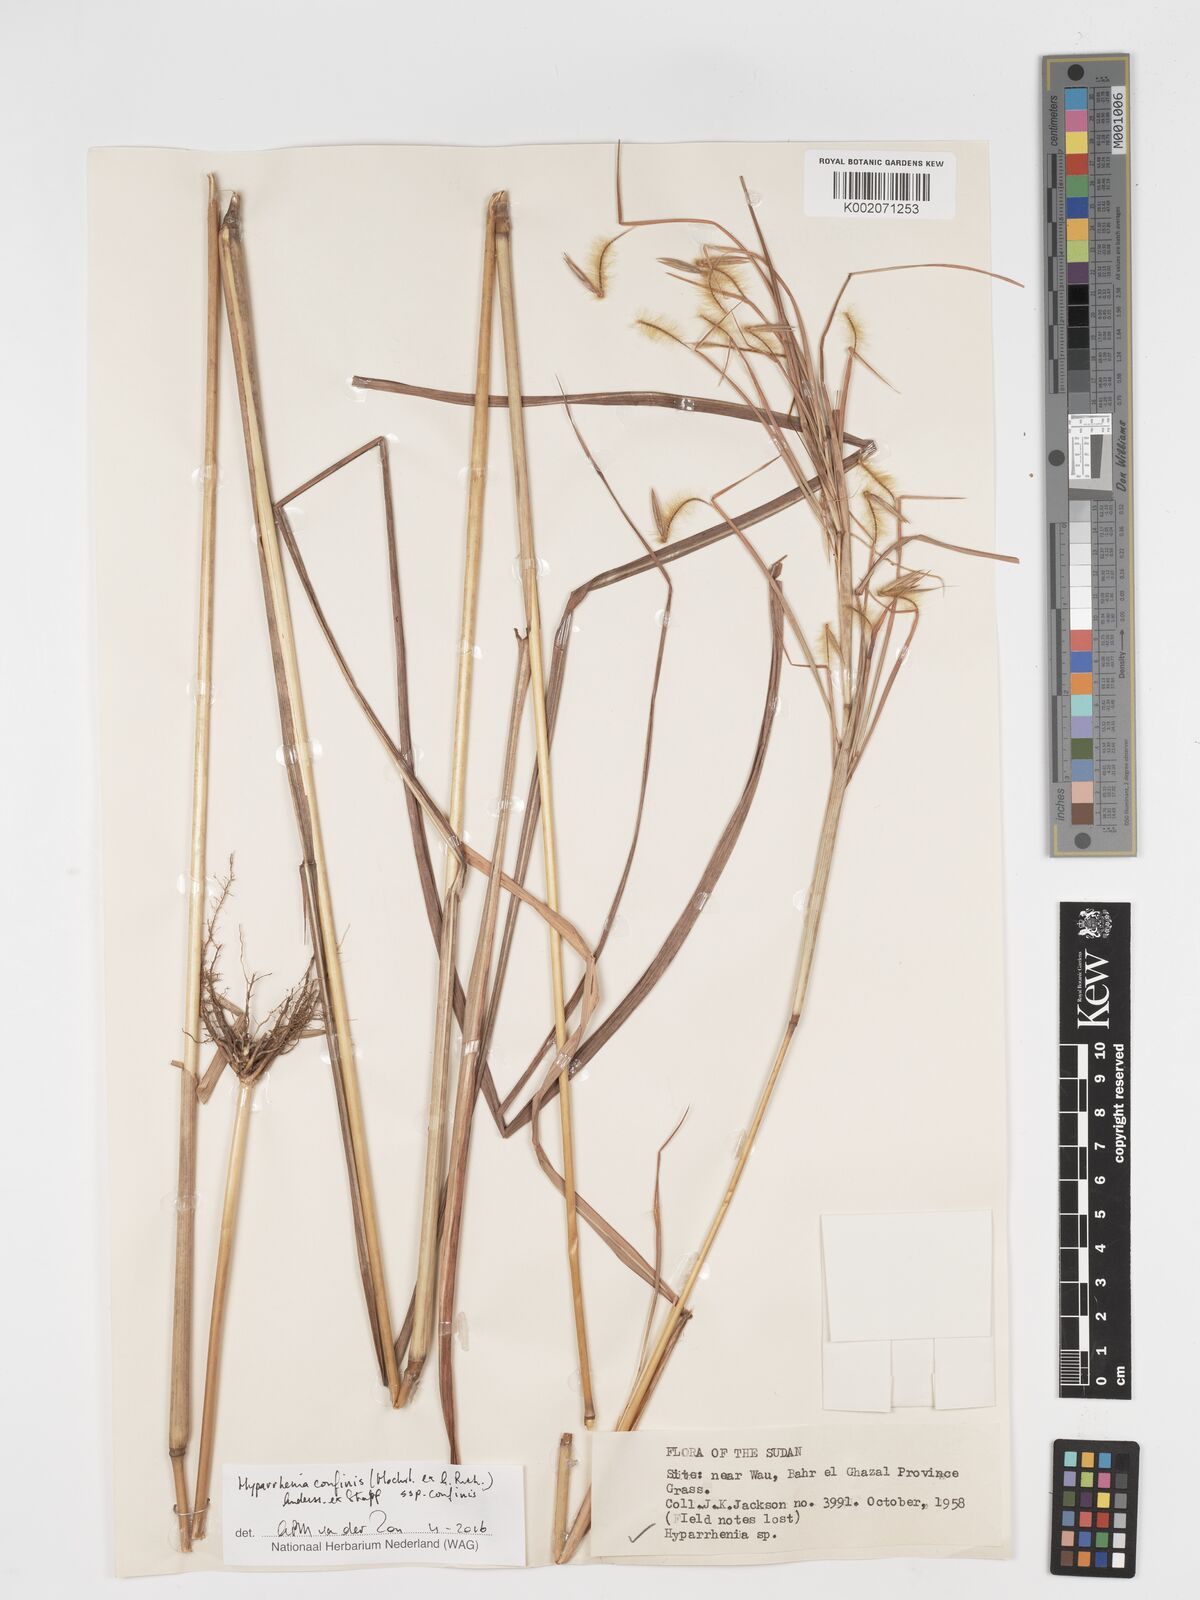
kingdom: Plantae
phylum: Tracheophyta
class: Liliopsida
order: Poales
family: Poaceae
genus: Hyparrhenia
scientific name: Hyparrhenia confinis
